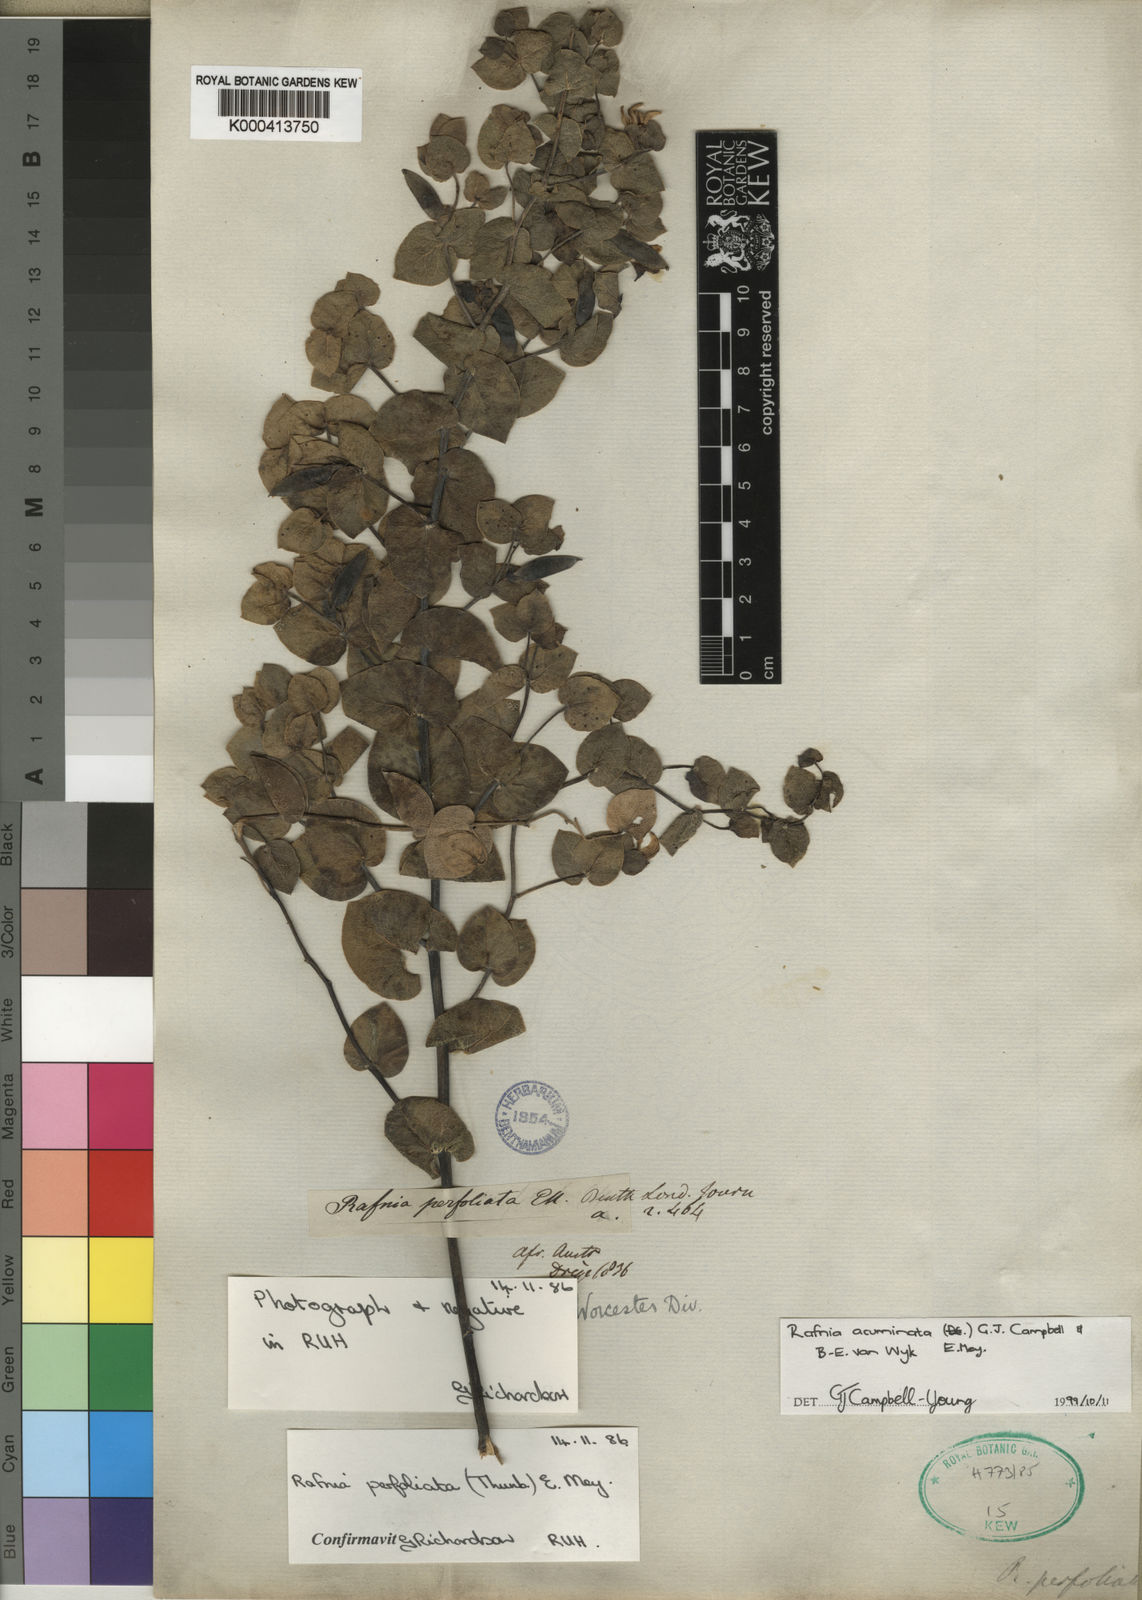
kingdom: Plantae
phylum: Tracheophyta
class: Magnoliopsida
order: Fabales
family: Fabaceae
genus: Rafnia
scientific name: Rafnia acuminata
